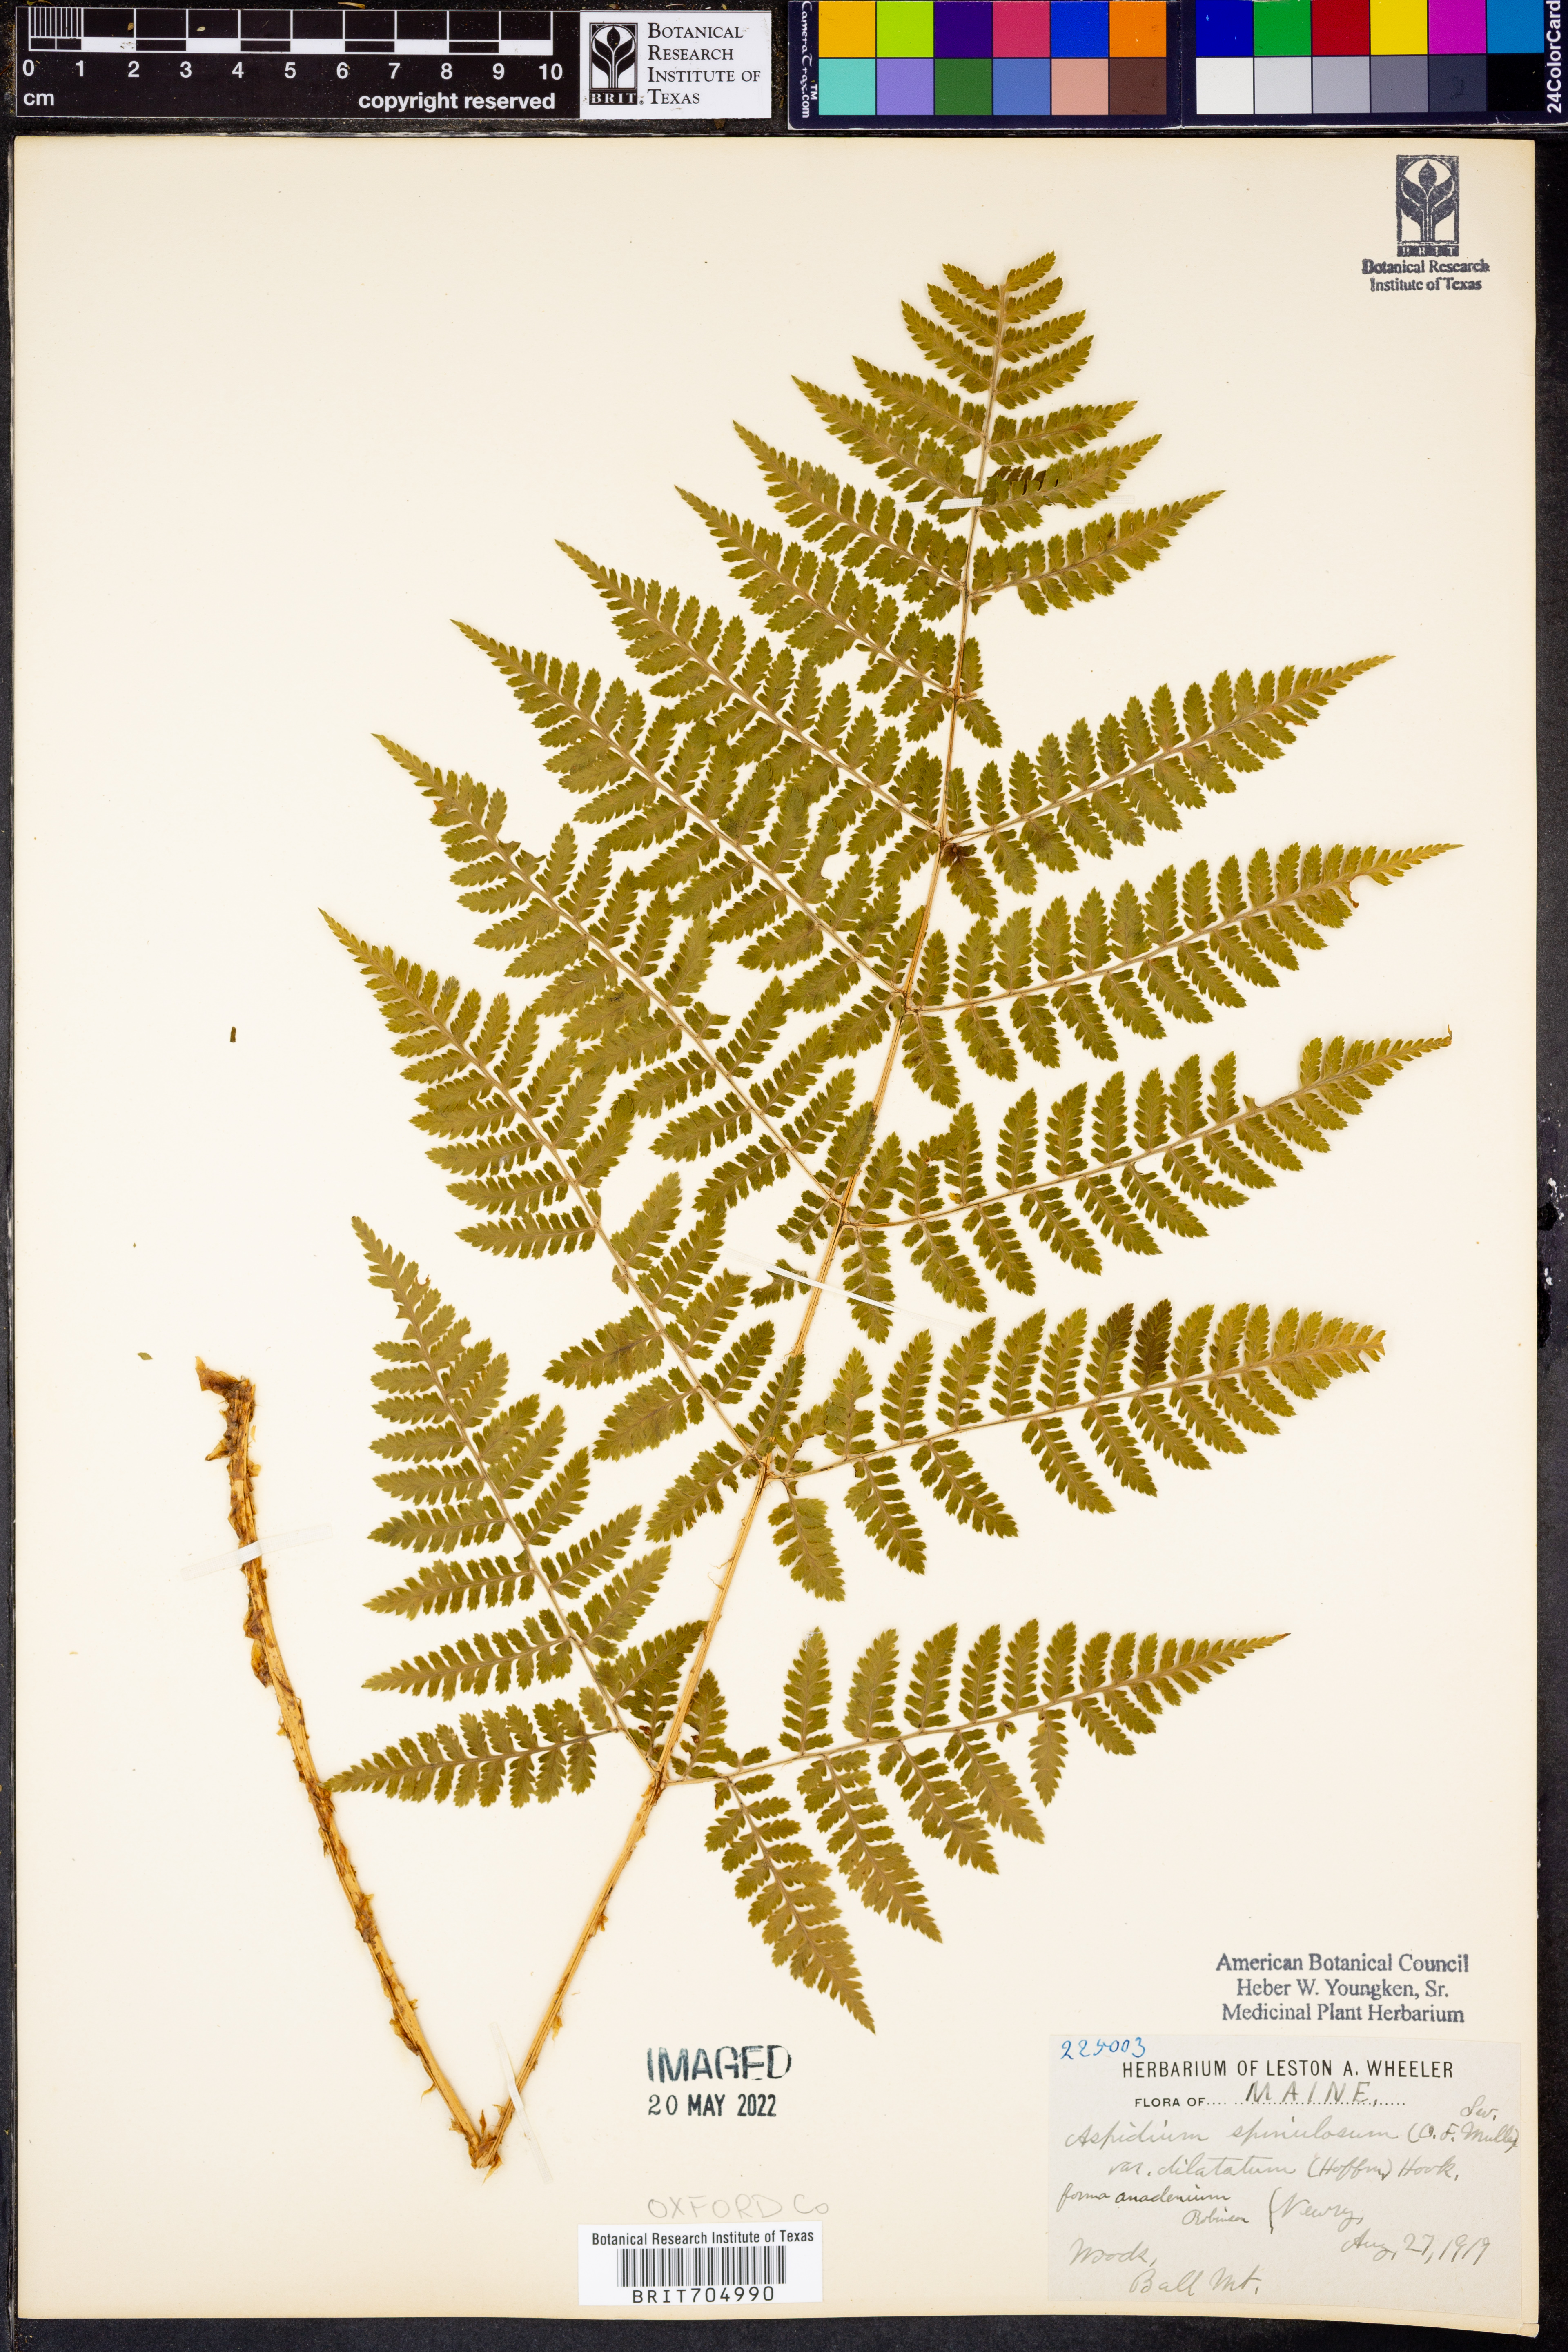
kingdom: Plantae
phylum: Tracheophyta
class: Polypodiopsida
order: Polypodiales
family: Dryopteridaceae
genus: Dryopteris
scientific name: Dryopteris dilatata
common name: Broad buckler-fern
